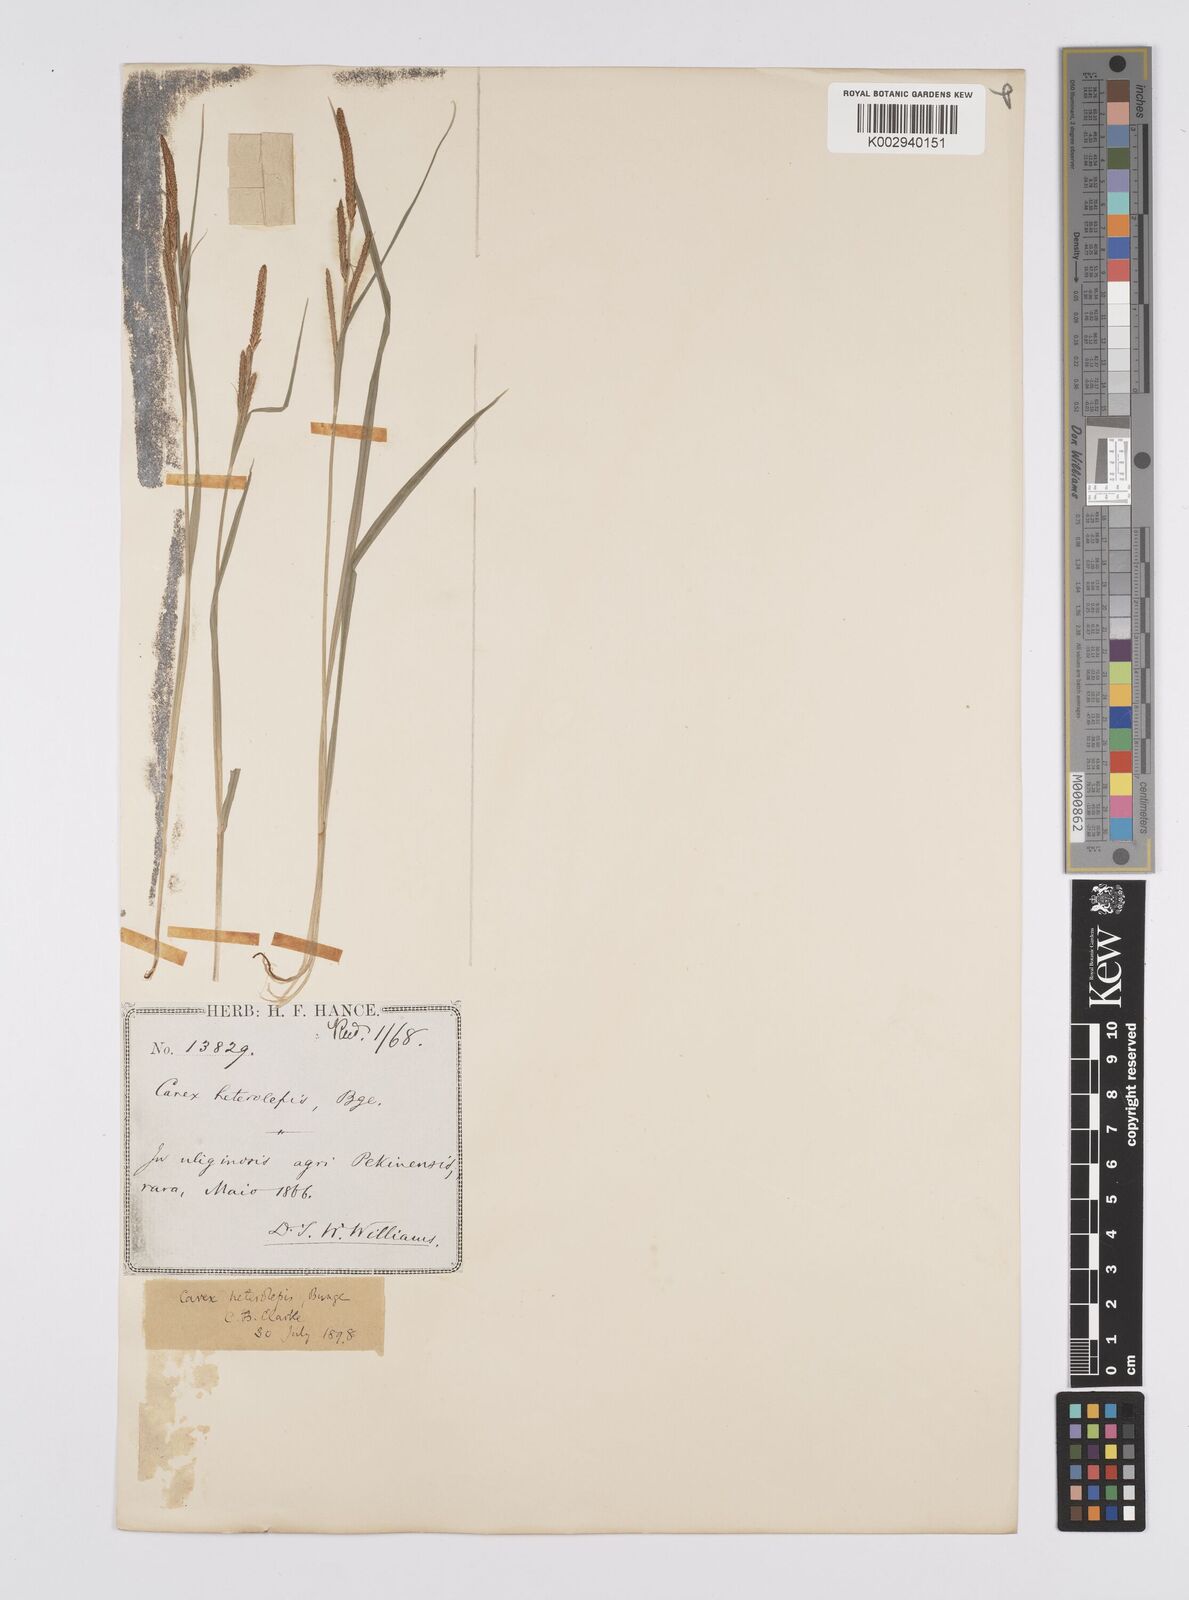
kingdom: Plantae
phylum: Tracheophyta
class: Liliopsida
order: Poales
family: Cyperaceae
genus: Carex
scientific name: Carex cruenta
